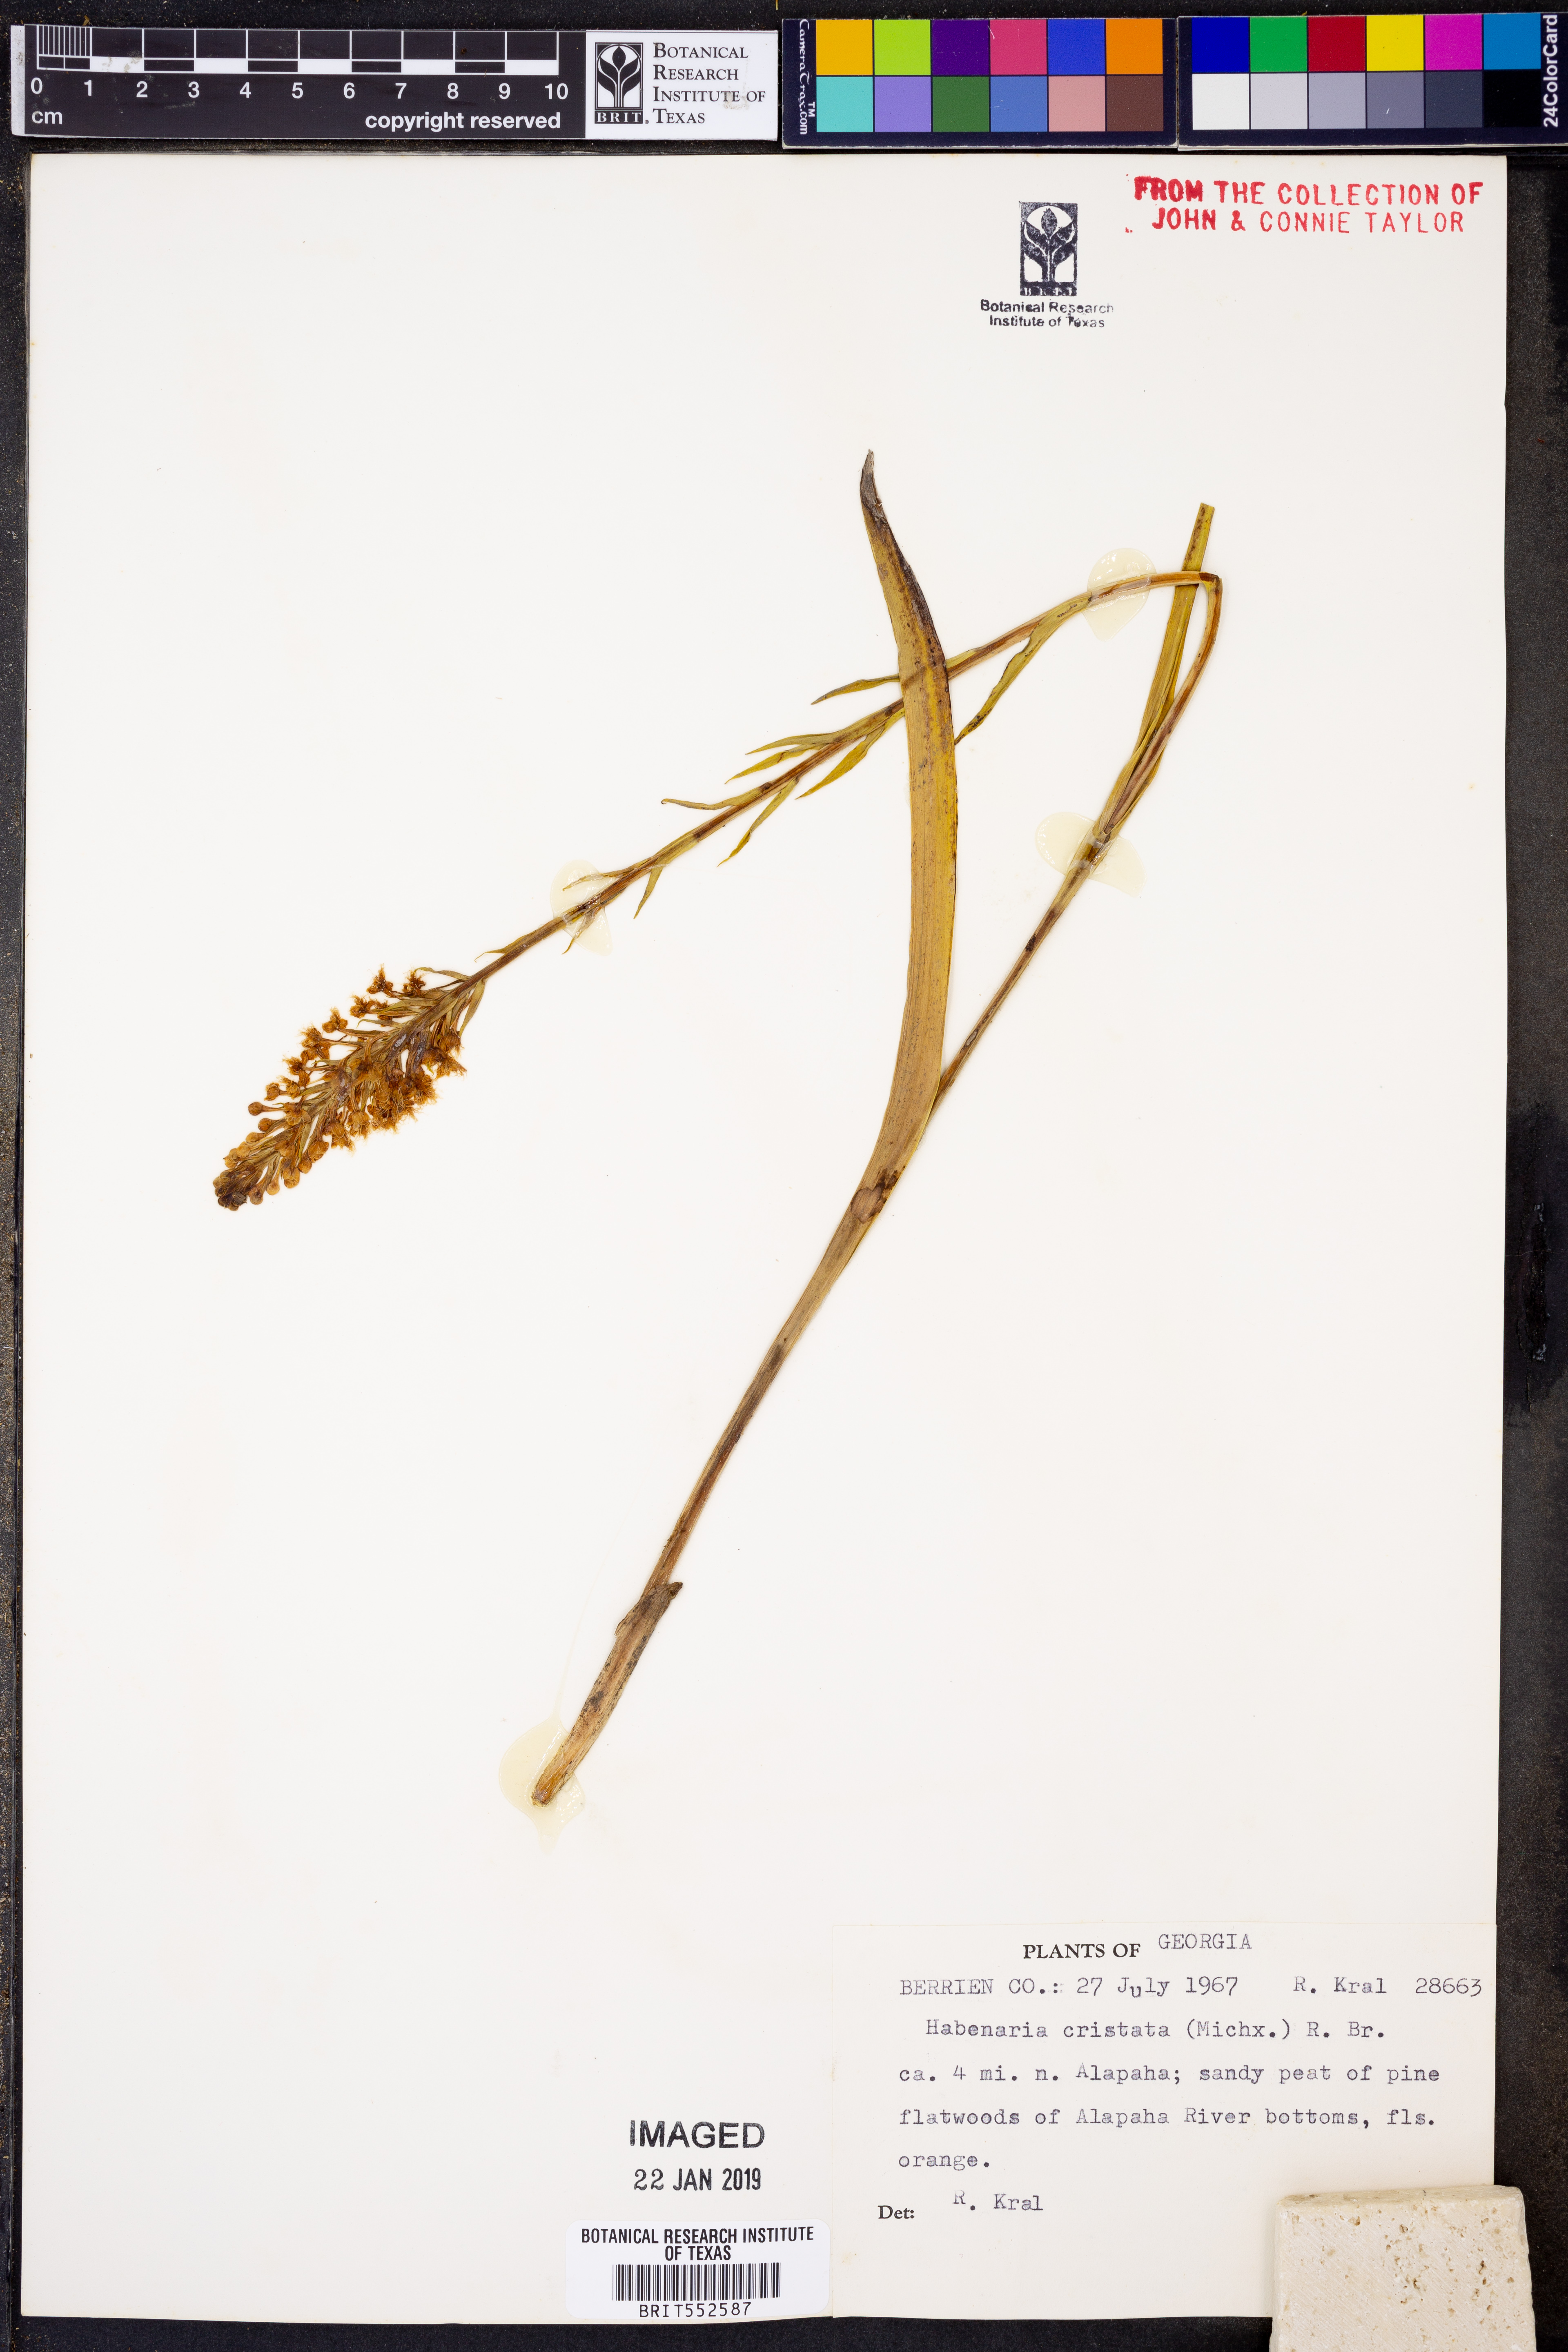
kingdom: Plantae
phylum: Tracheophyta
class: Liliopsida
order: Asparagales
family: Orchidaceae
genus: Platanthera
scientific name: Platanthera cristata
